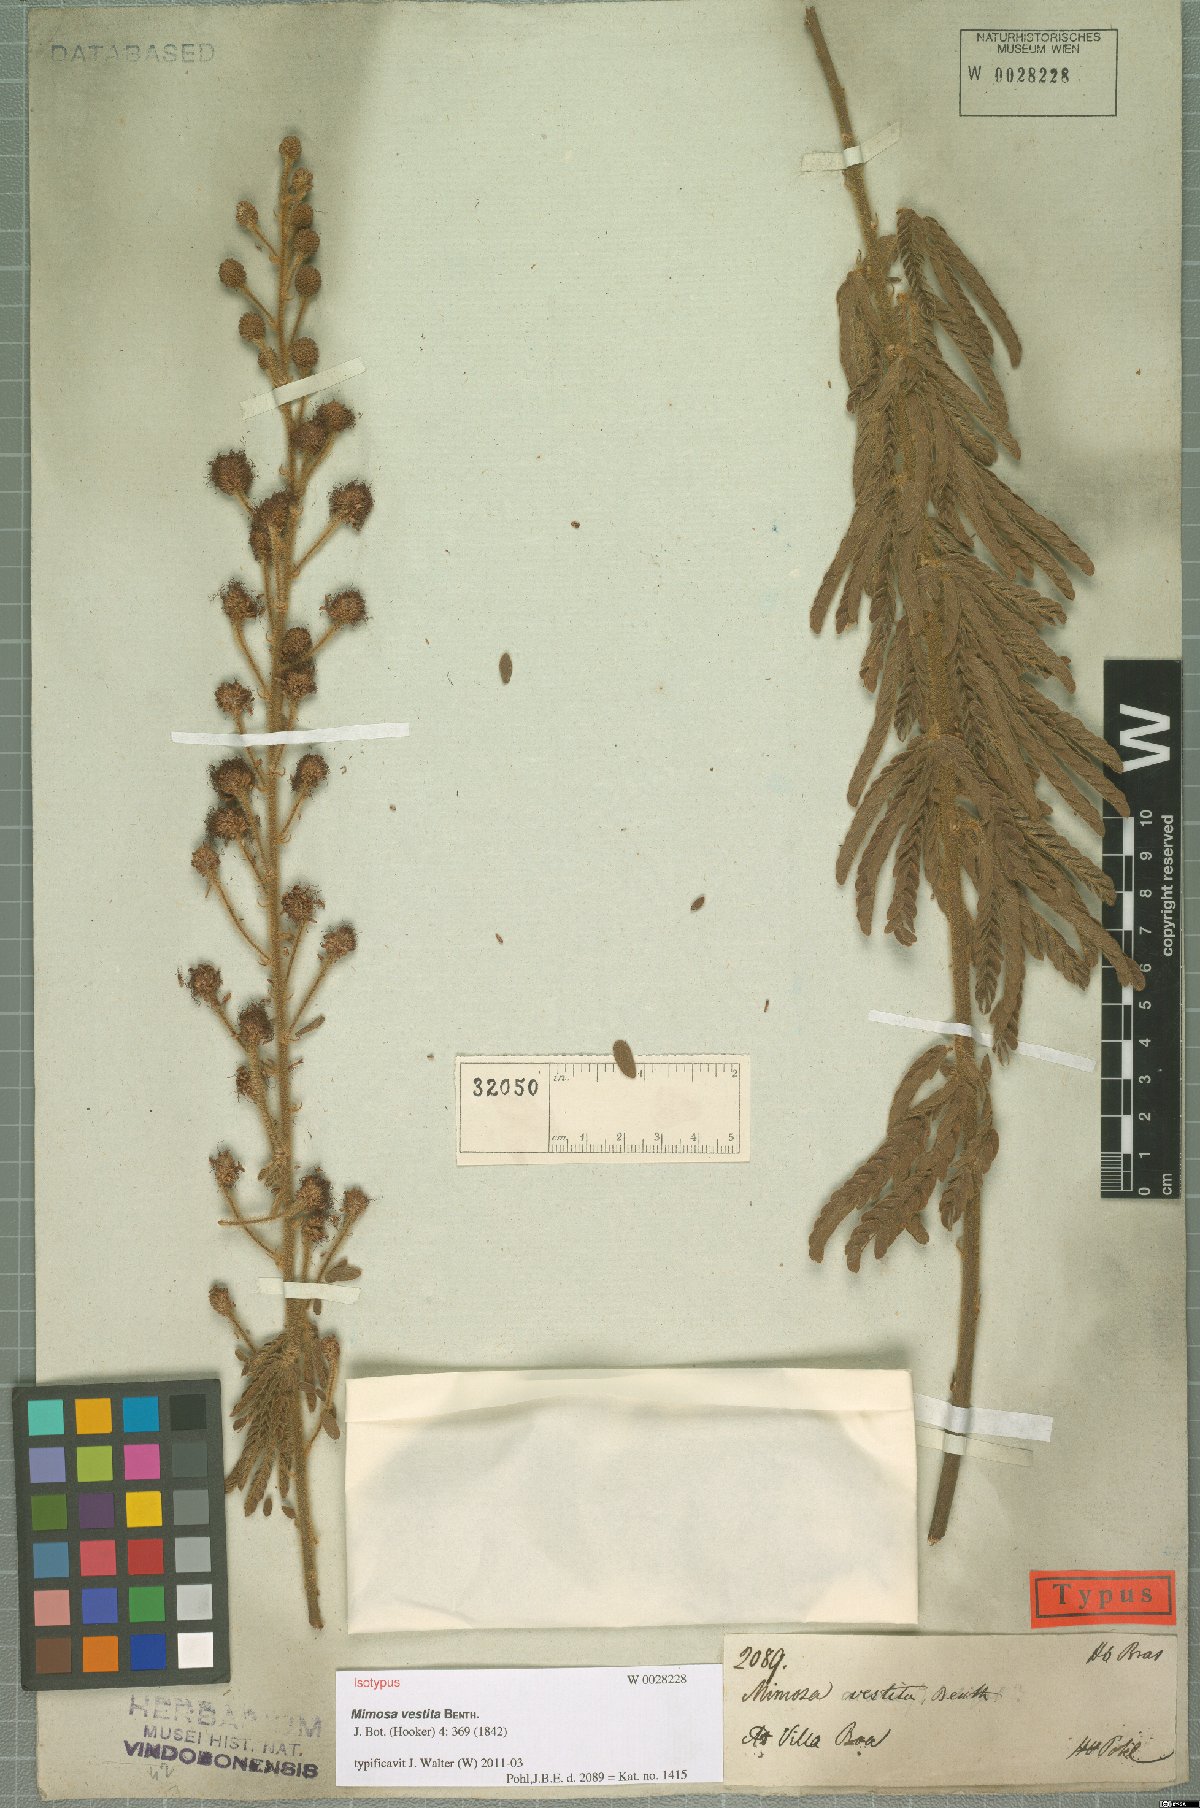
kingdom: Plantae
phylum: Tracheophyta
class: Magnoliopsida
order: Fabales
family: Fabaceae
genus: Mimosa
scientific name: Mimosa vestita
